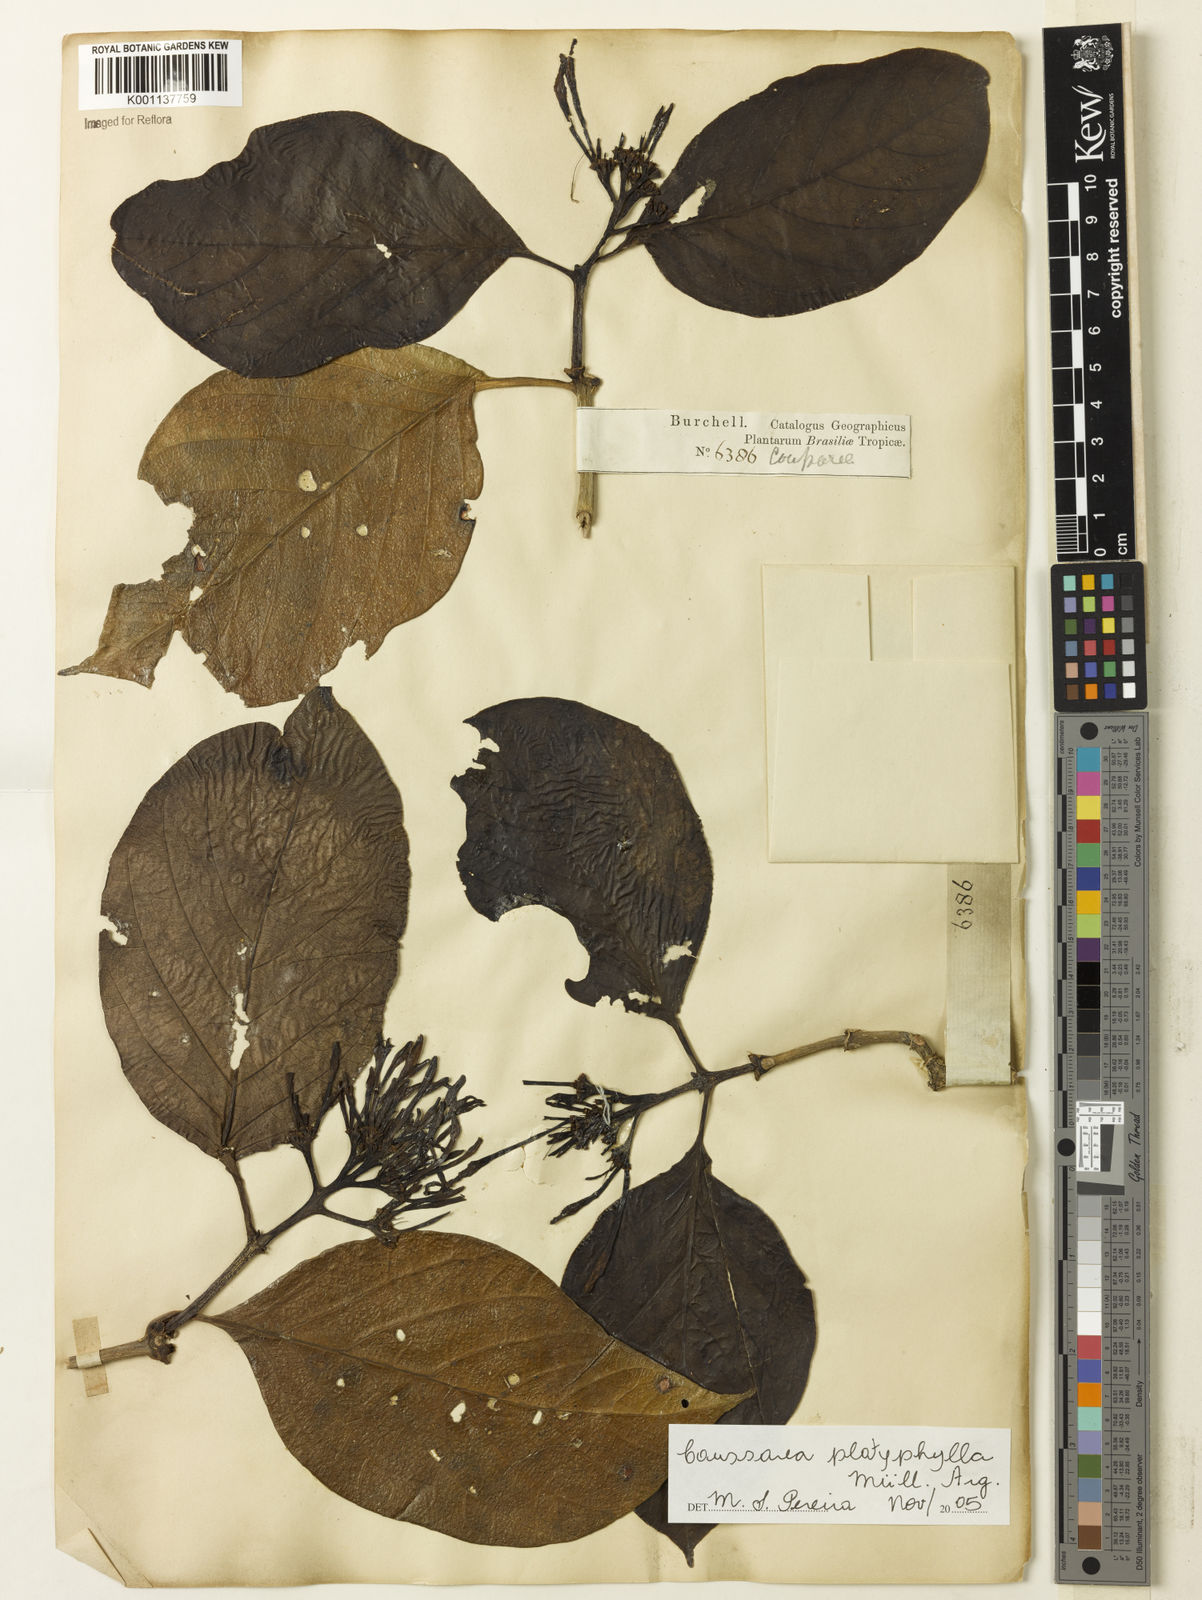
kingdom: Plantae
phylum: Tracheophyta
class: Magnoliopsida
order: Gentianales
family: Rubiaceae
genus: Coussarea
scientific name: Coussarea
